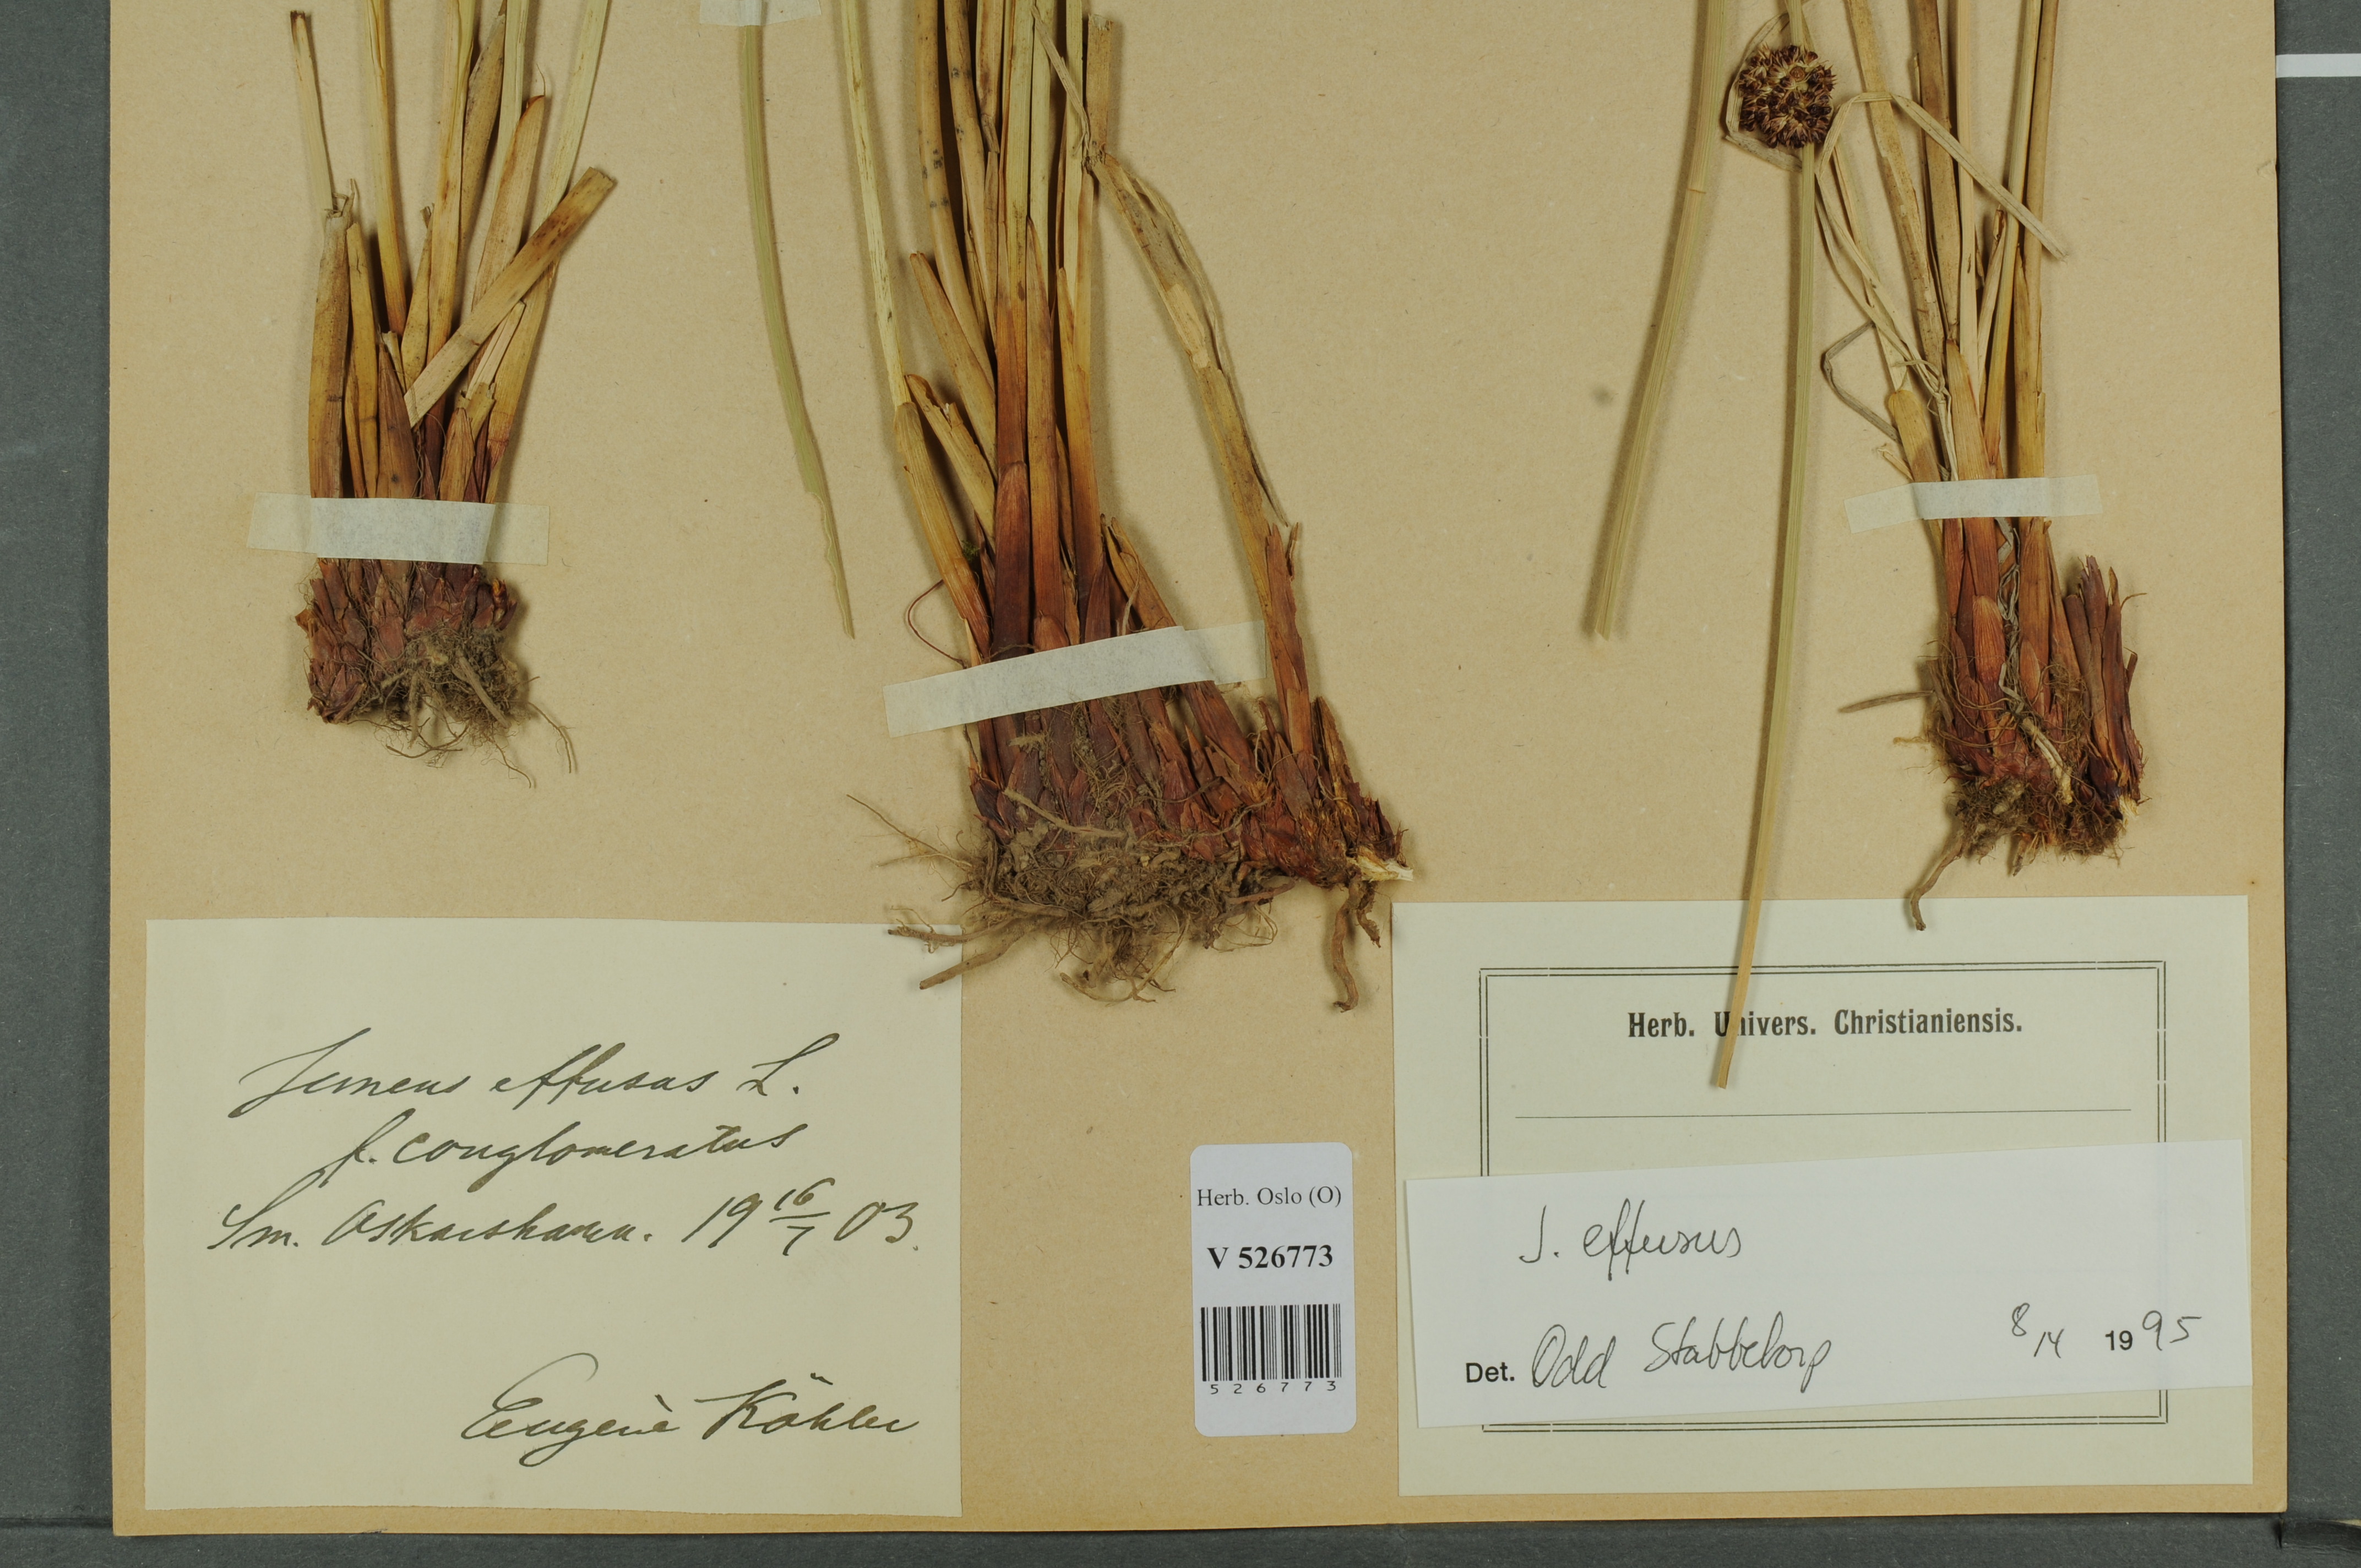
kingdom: Plantae
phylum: Tracheophyta
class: Liliopsida
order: Poales
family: Juncaceae
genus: Juncus
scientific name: Juncus effusus
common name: Soft rush
